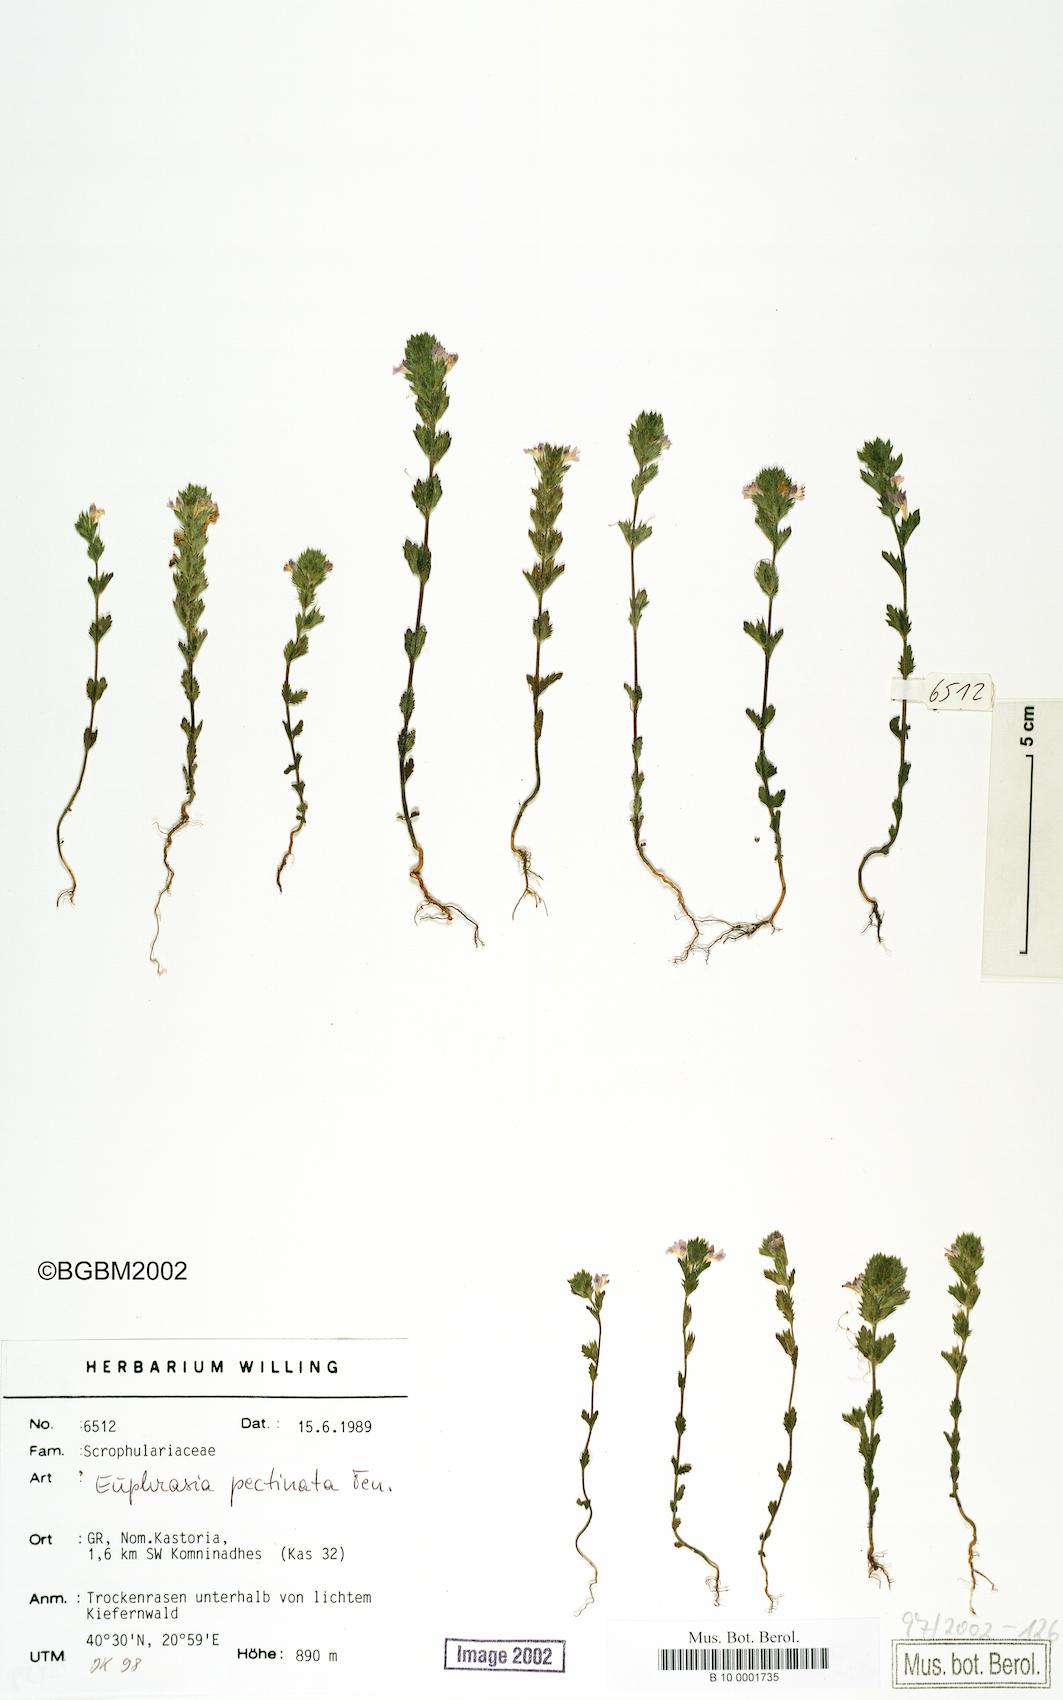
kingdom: Plantae
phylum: Tracheophyta
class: Magnoliopsida
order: Lamiales
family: Orobanchaceae
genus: Euphrasia
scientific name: Euphrasia pectinata
